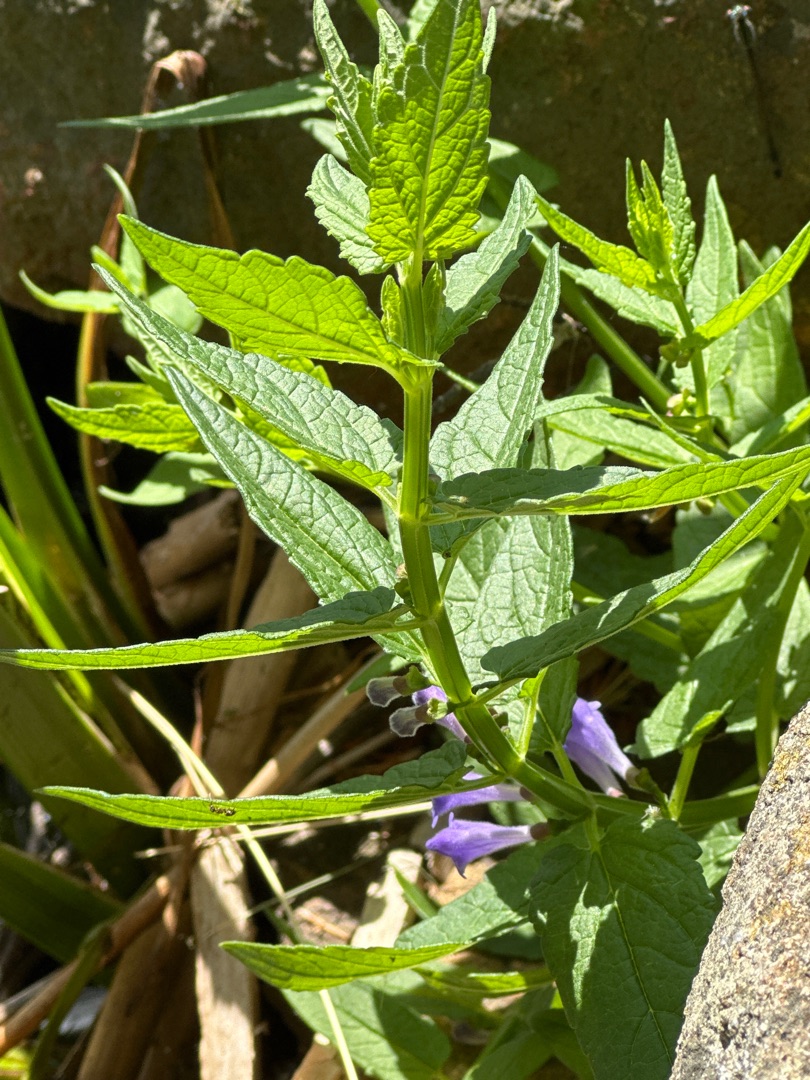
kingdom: Plantae
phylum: Tracheophyta
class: Magnoliopsida
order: Lamiales
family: Lamiaceae
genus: Scutellaria
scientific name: Scutellaria galericulata
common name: Almindelig skjolddrager
